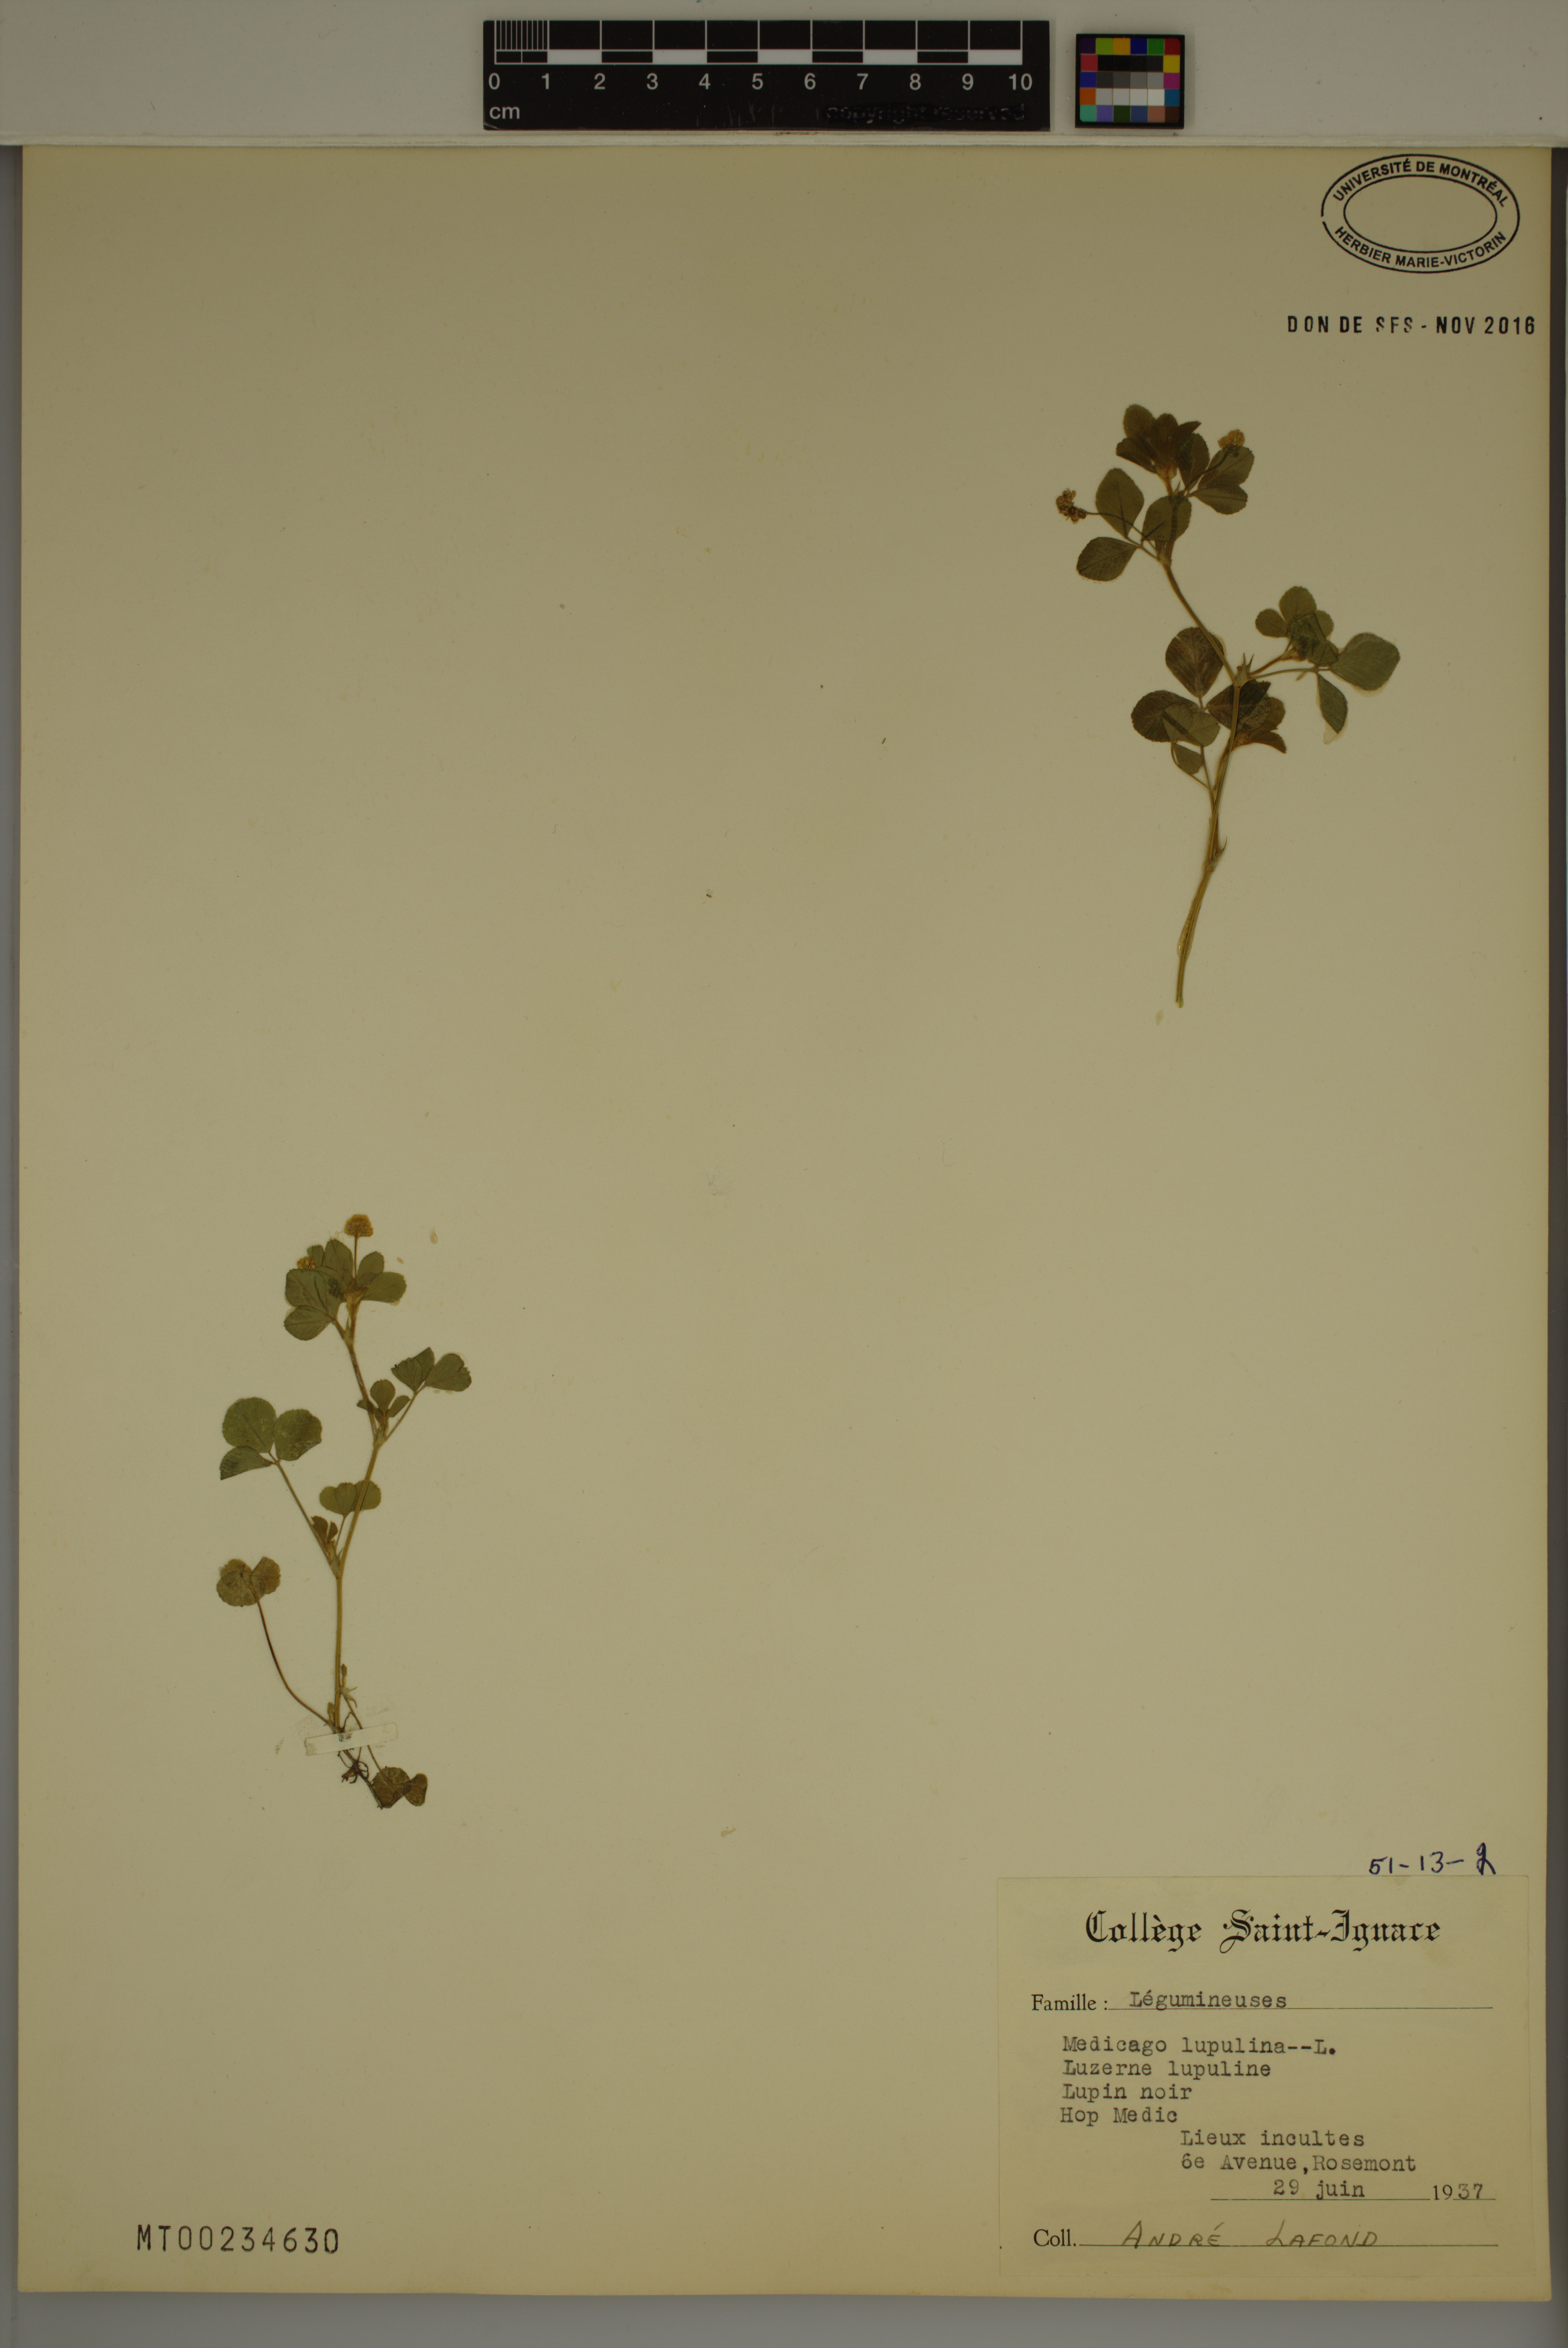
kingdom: Plantae
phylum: Tracheophyta
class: Magnoliopsida
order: Fabales
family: Fabaceae
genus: Medicago
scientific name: Medicago lupulina
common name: Black medick
